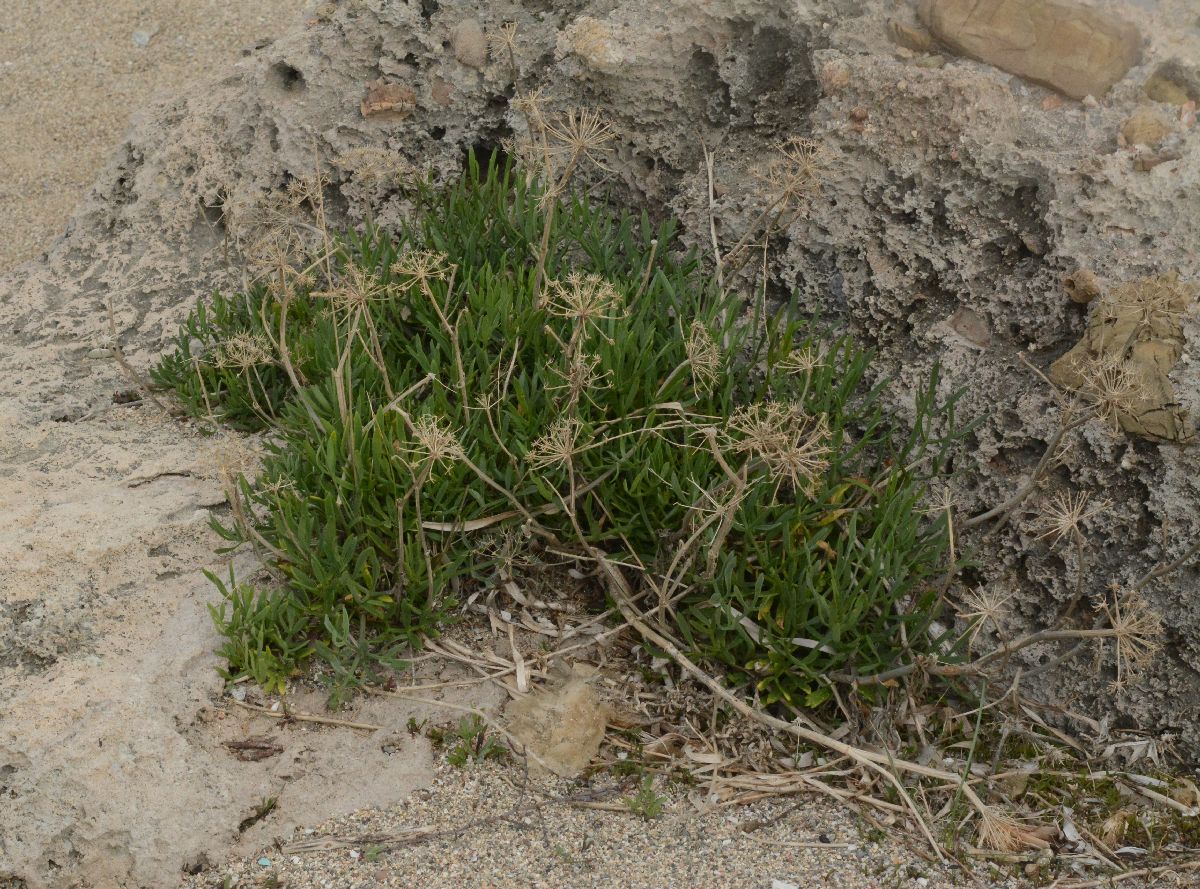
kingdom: Plantae
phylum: Tracheophyta
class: Magnoliopsida
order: Apiales
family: Apiaceae
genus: Crithmum
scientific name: Crithmum maritimum
